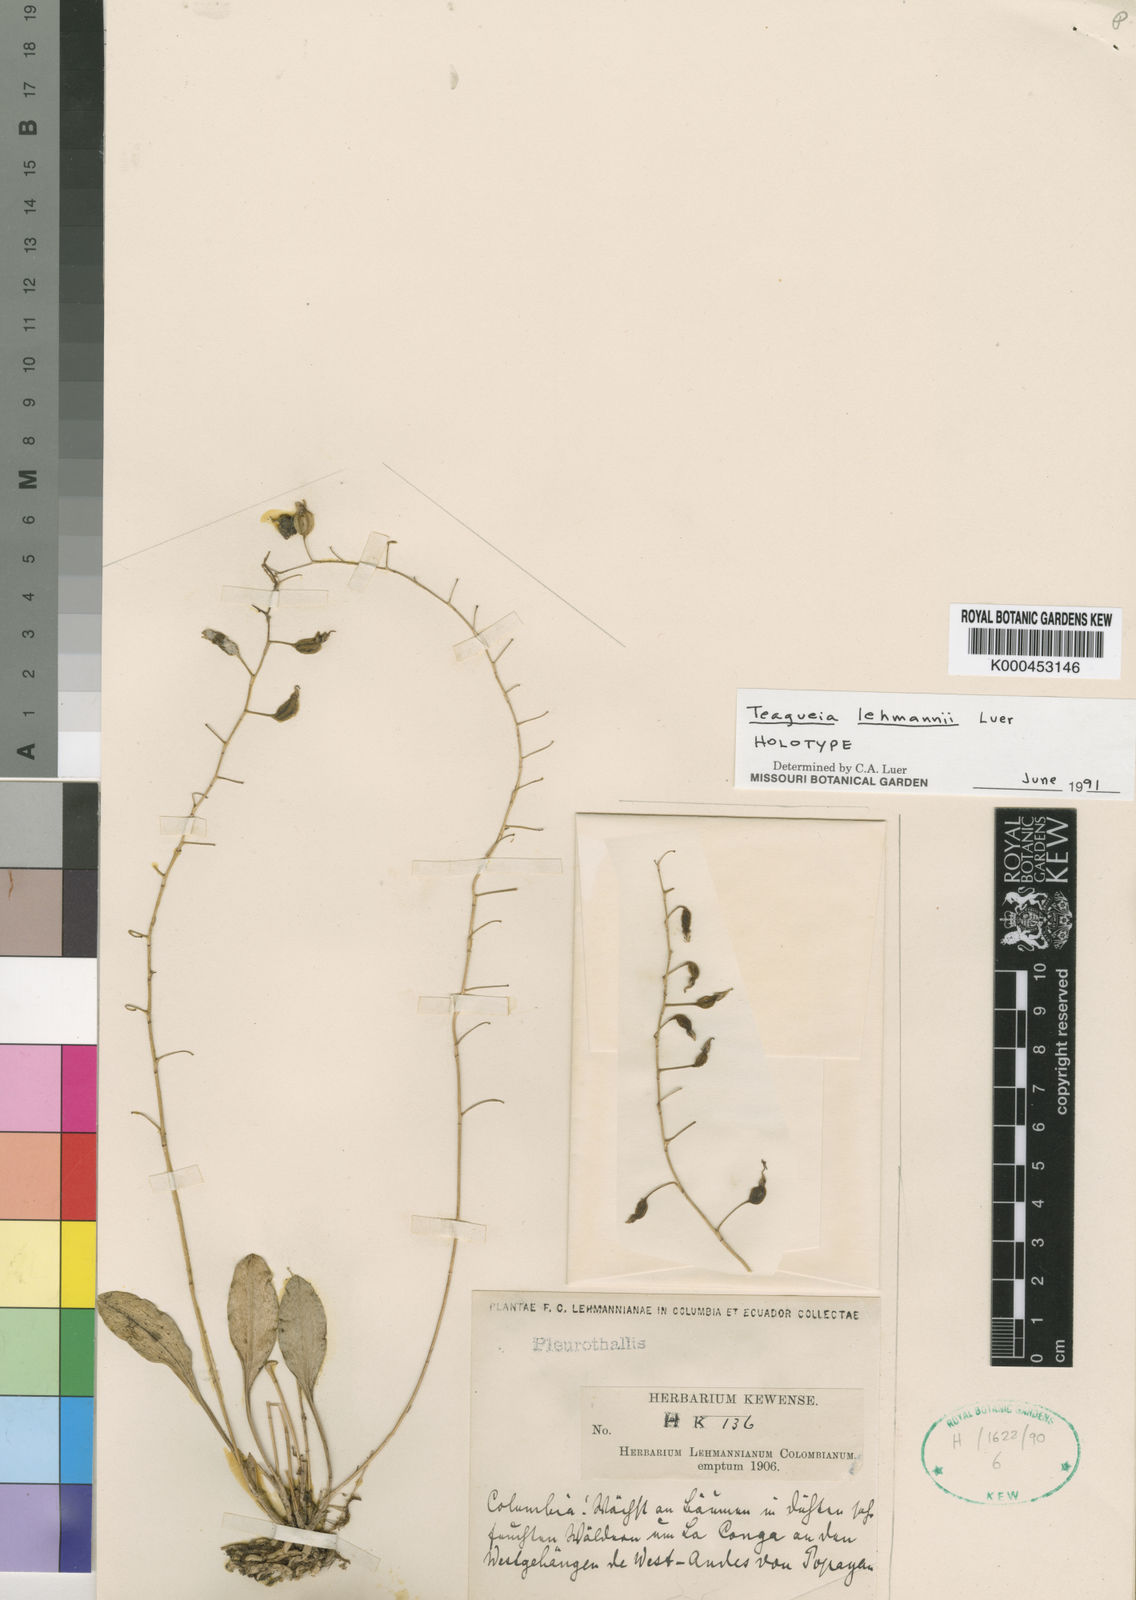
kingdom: Plantae
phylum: Tracheophyta
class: Liliopsida
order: Asparagales
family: Orchidaceae
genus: Platystele
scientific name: Platystele lehmannii
